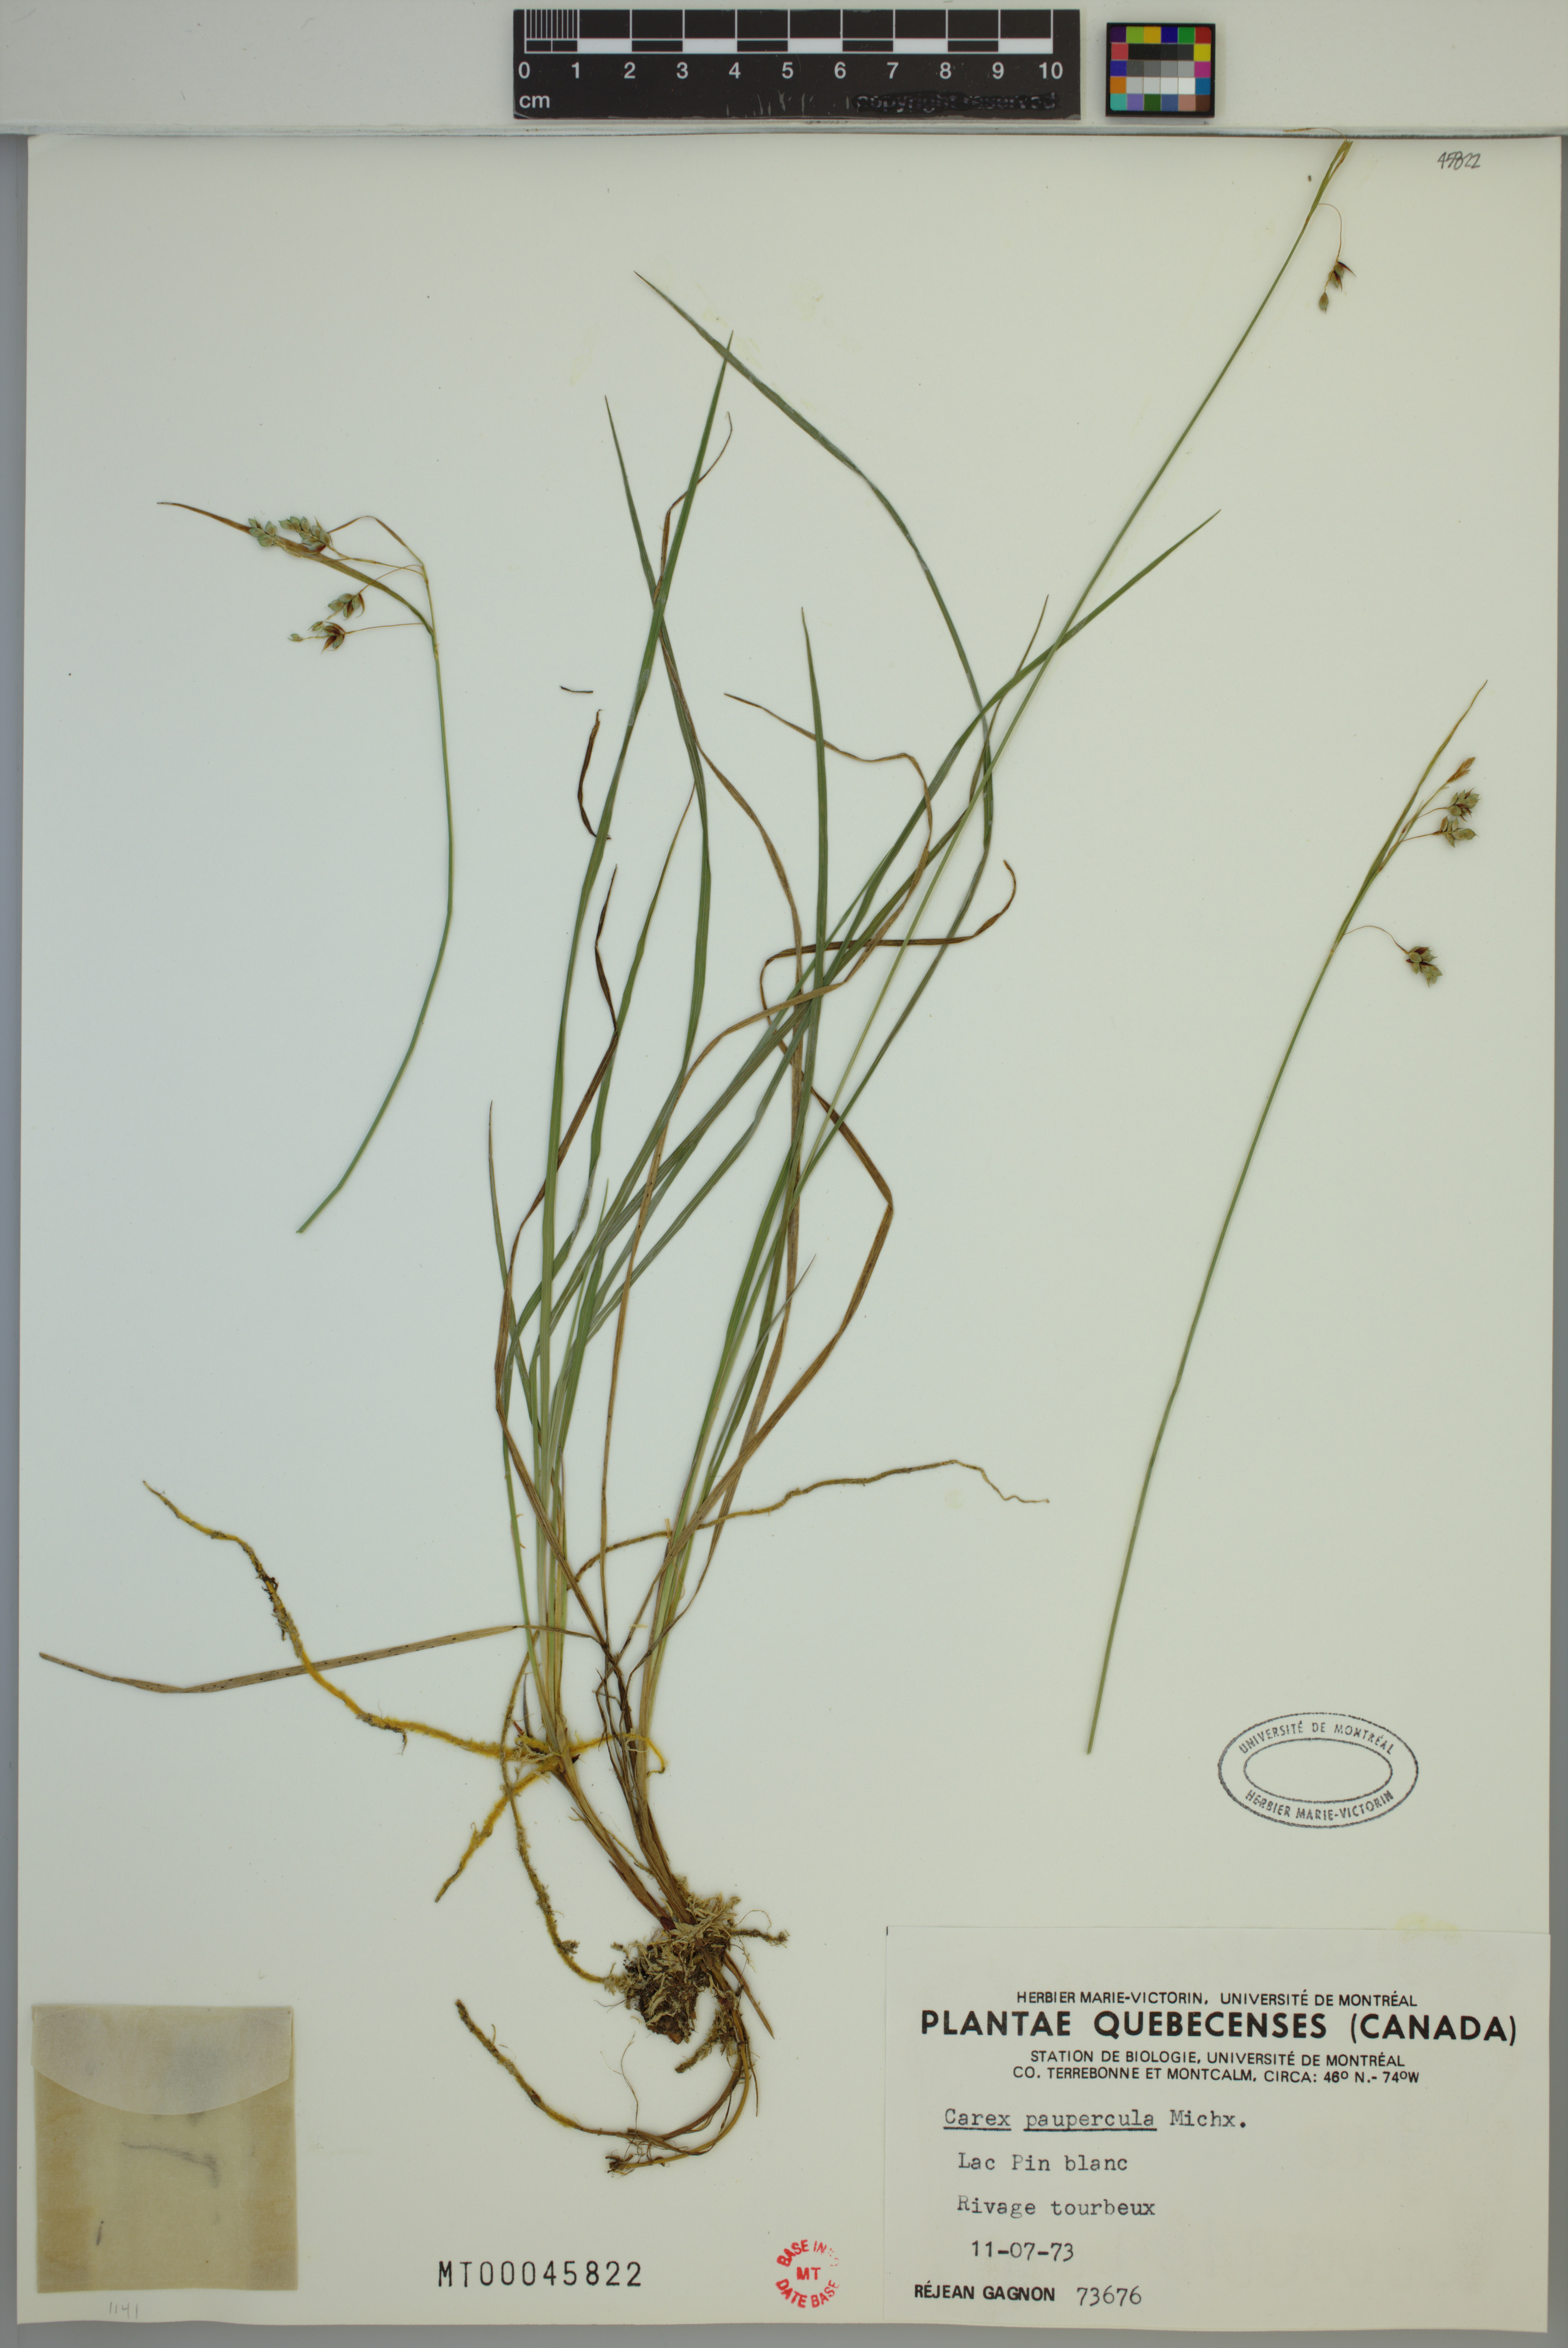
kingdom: Plantae
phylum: Tracheophyta
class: Liliopsida
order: Poales
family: Cyperaceae
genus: Carex
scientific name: Carex magellanica
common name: Bog sedge
